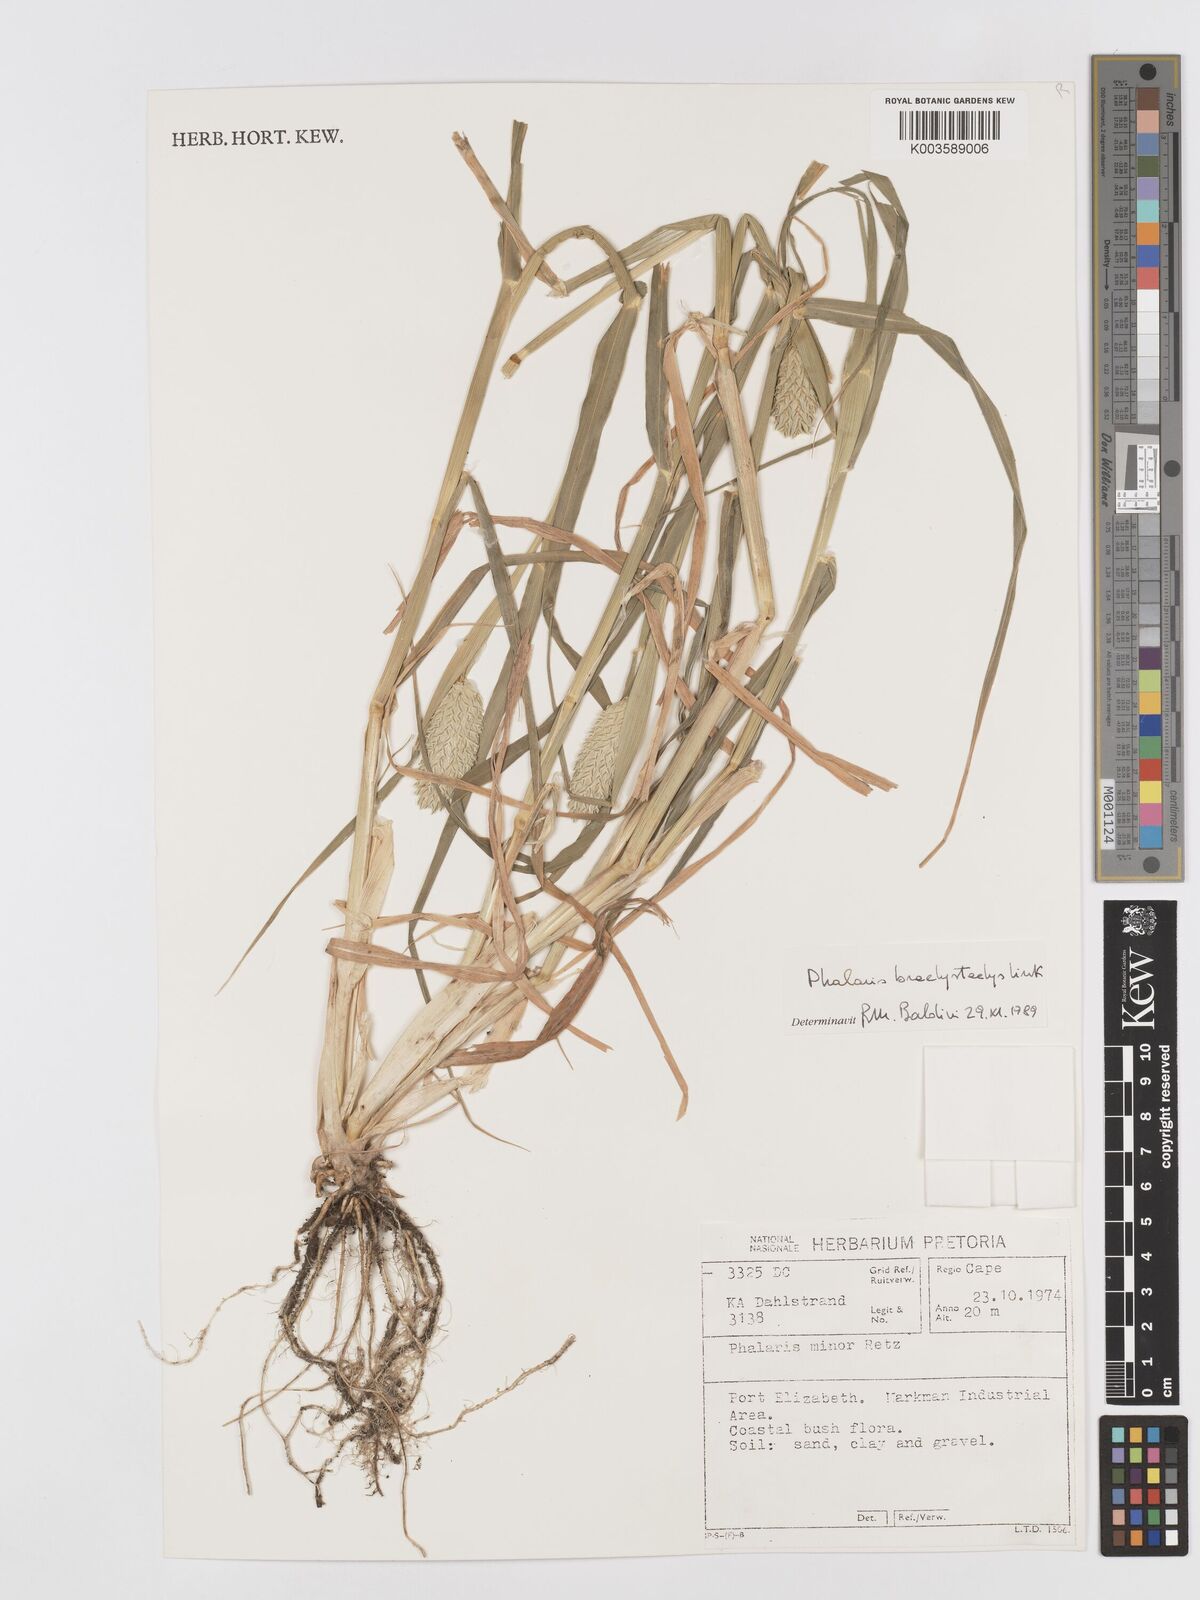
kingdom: Plantae
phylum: Tracheophyta
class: Liliopsida
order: Poales
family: Poaceae
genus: Phalaris
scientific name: Phalaris minor
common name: Littleseed canarygrass
